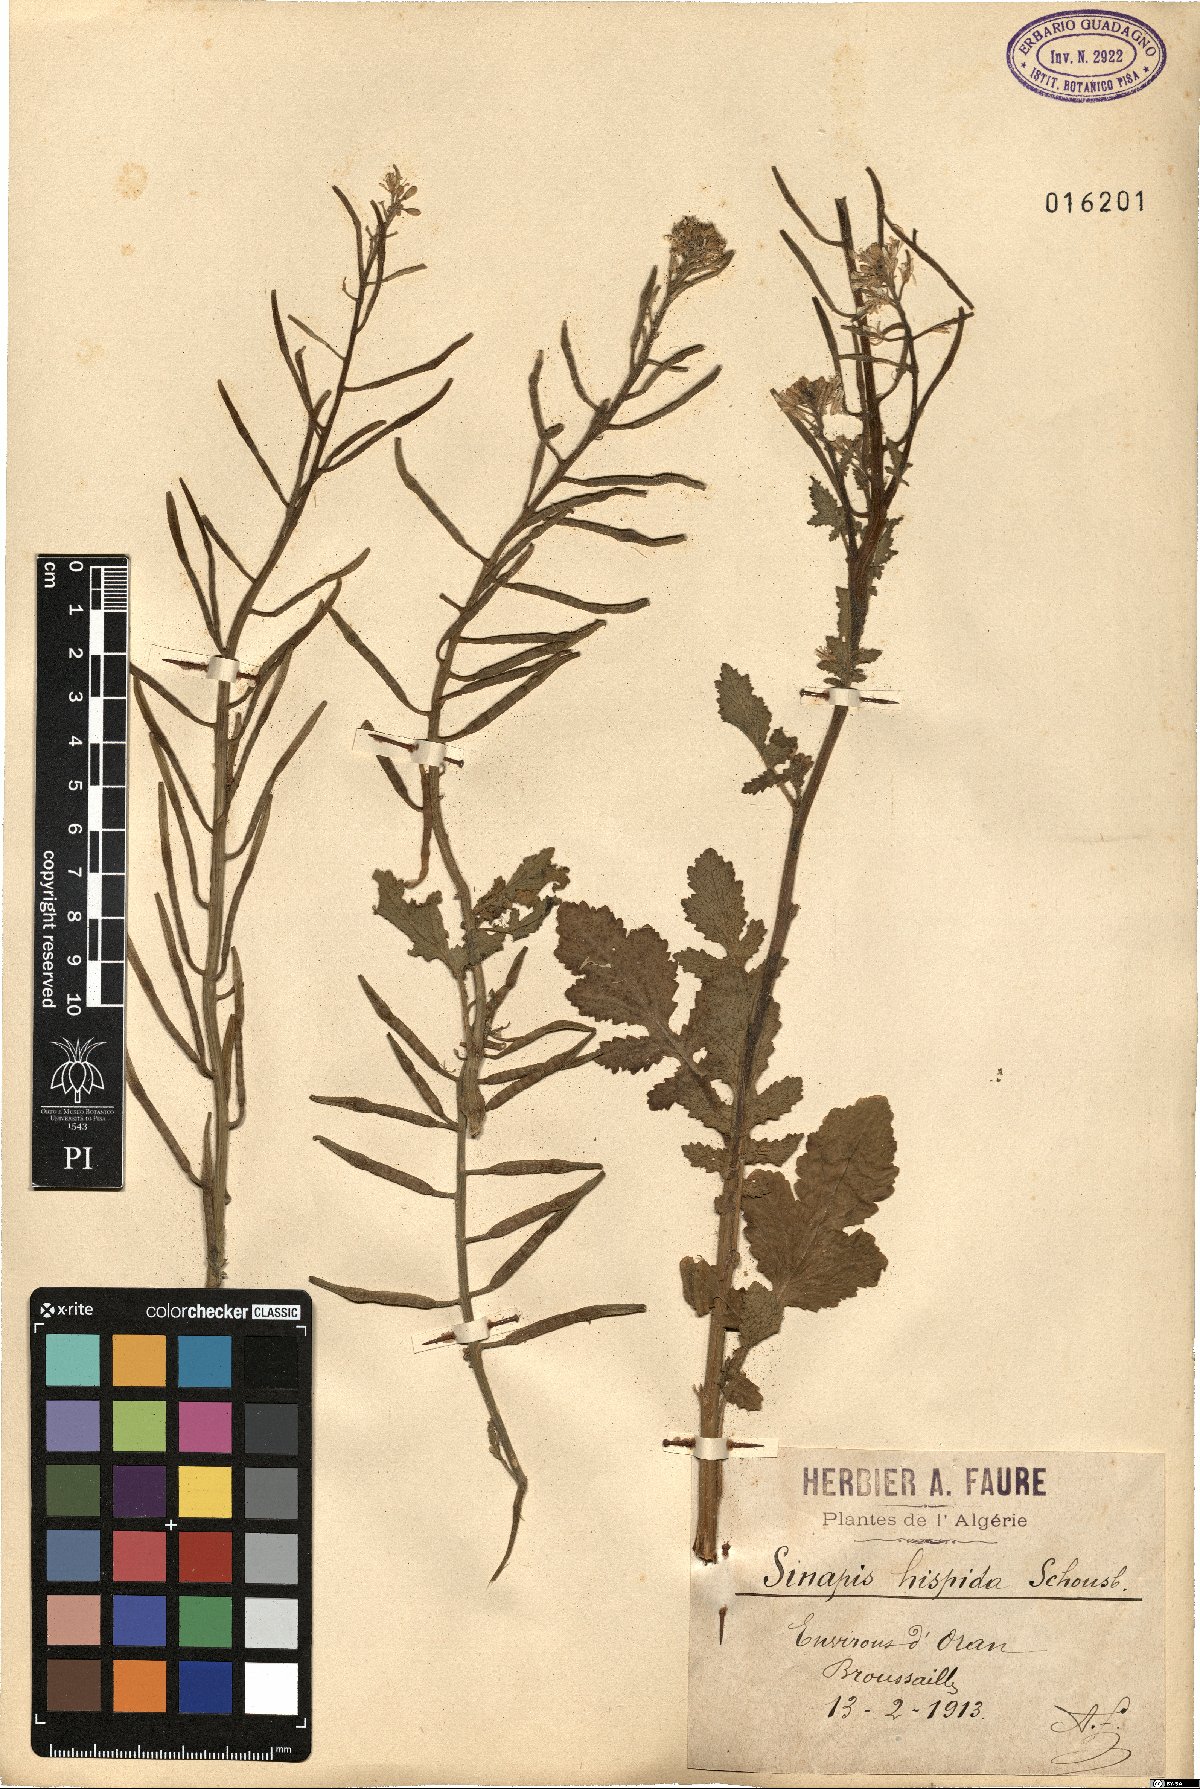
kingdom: Plantae
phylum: Tracheophyta
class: Magnoliopsida
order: Brassicales
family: Brassicaceae
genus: Sinapis
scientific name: Sinapis flexuosa
